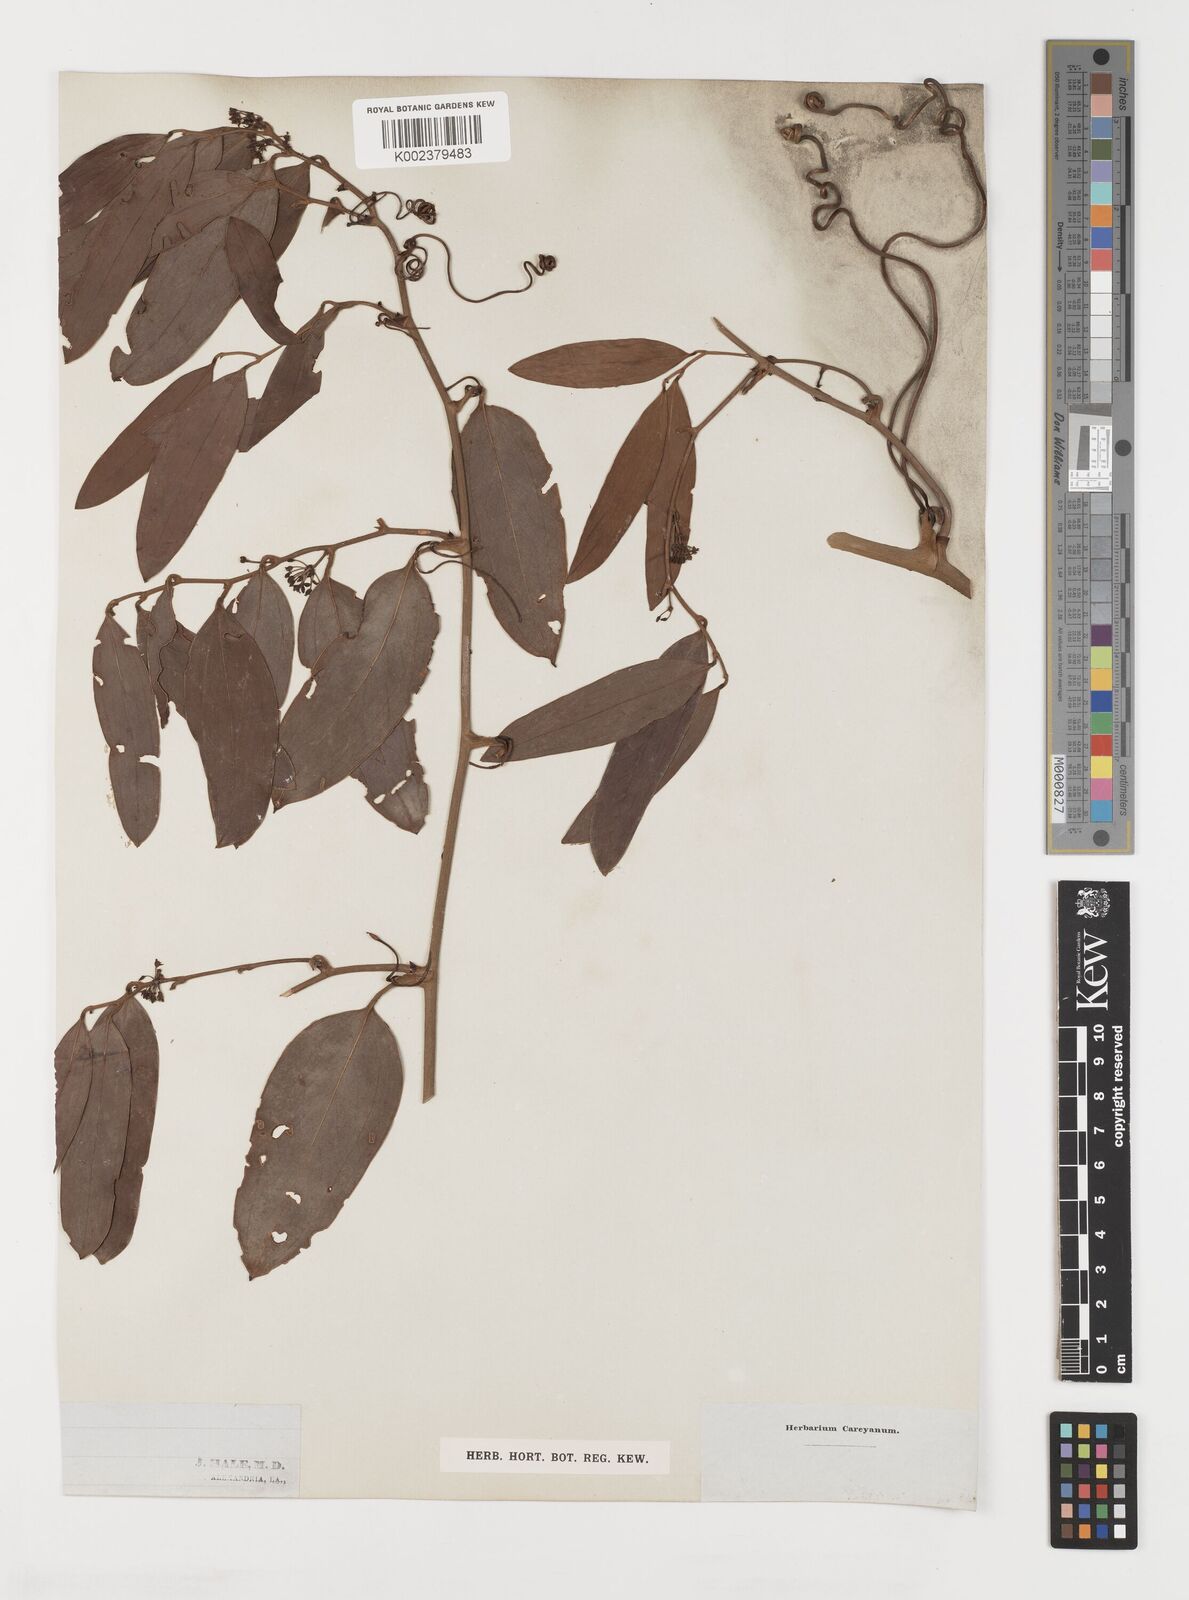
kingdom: Plantae
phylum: Tracheophyta
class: Liliopsida
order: Liliales
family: Smilacaceae
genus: Smilax
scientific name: Smilax
